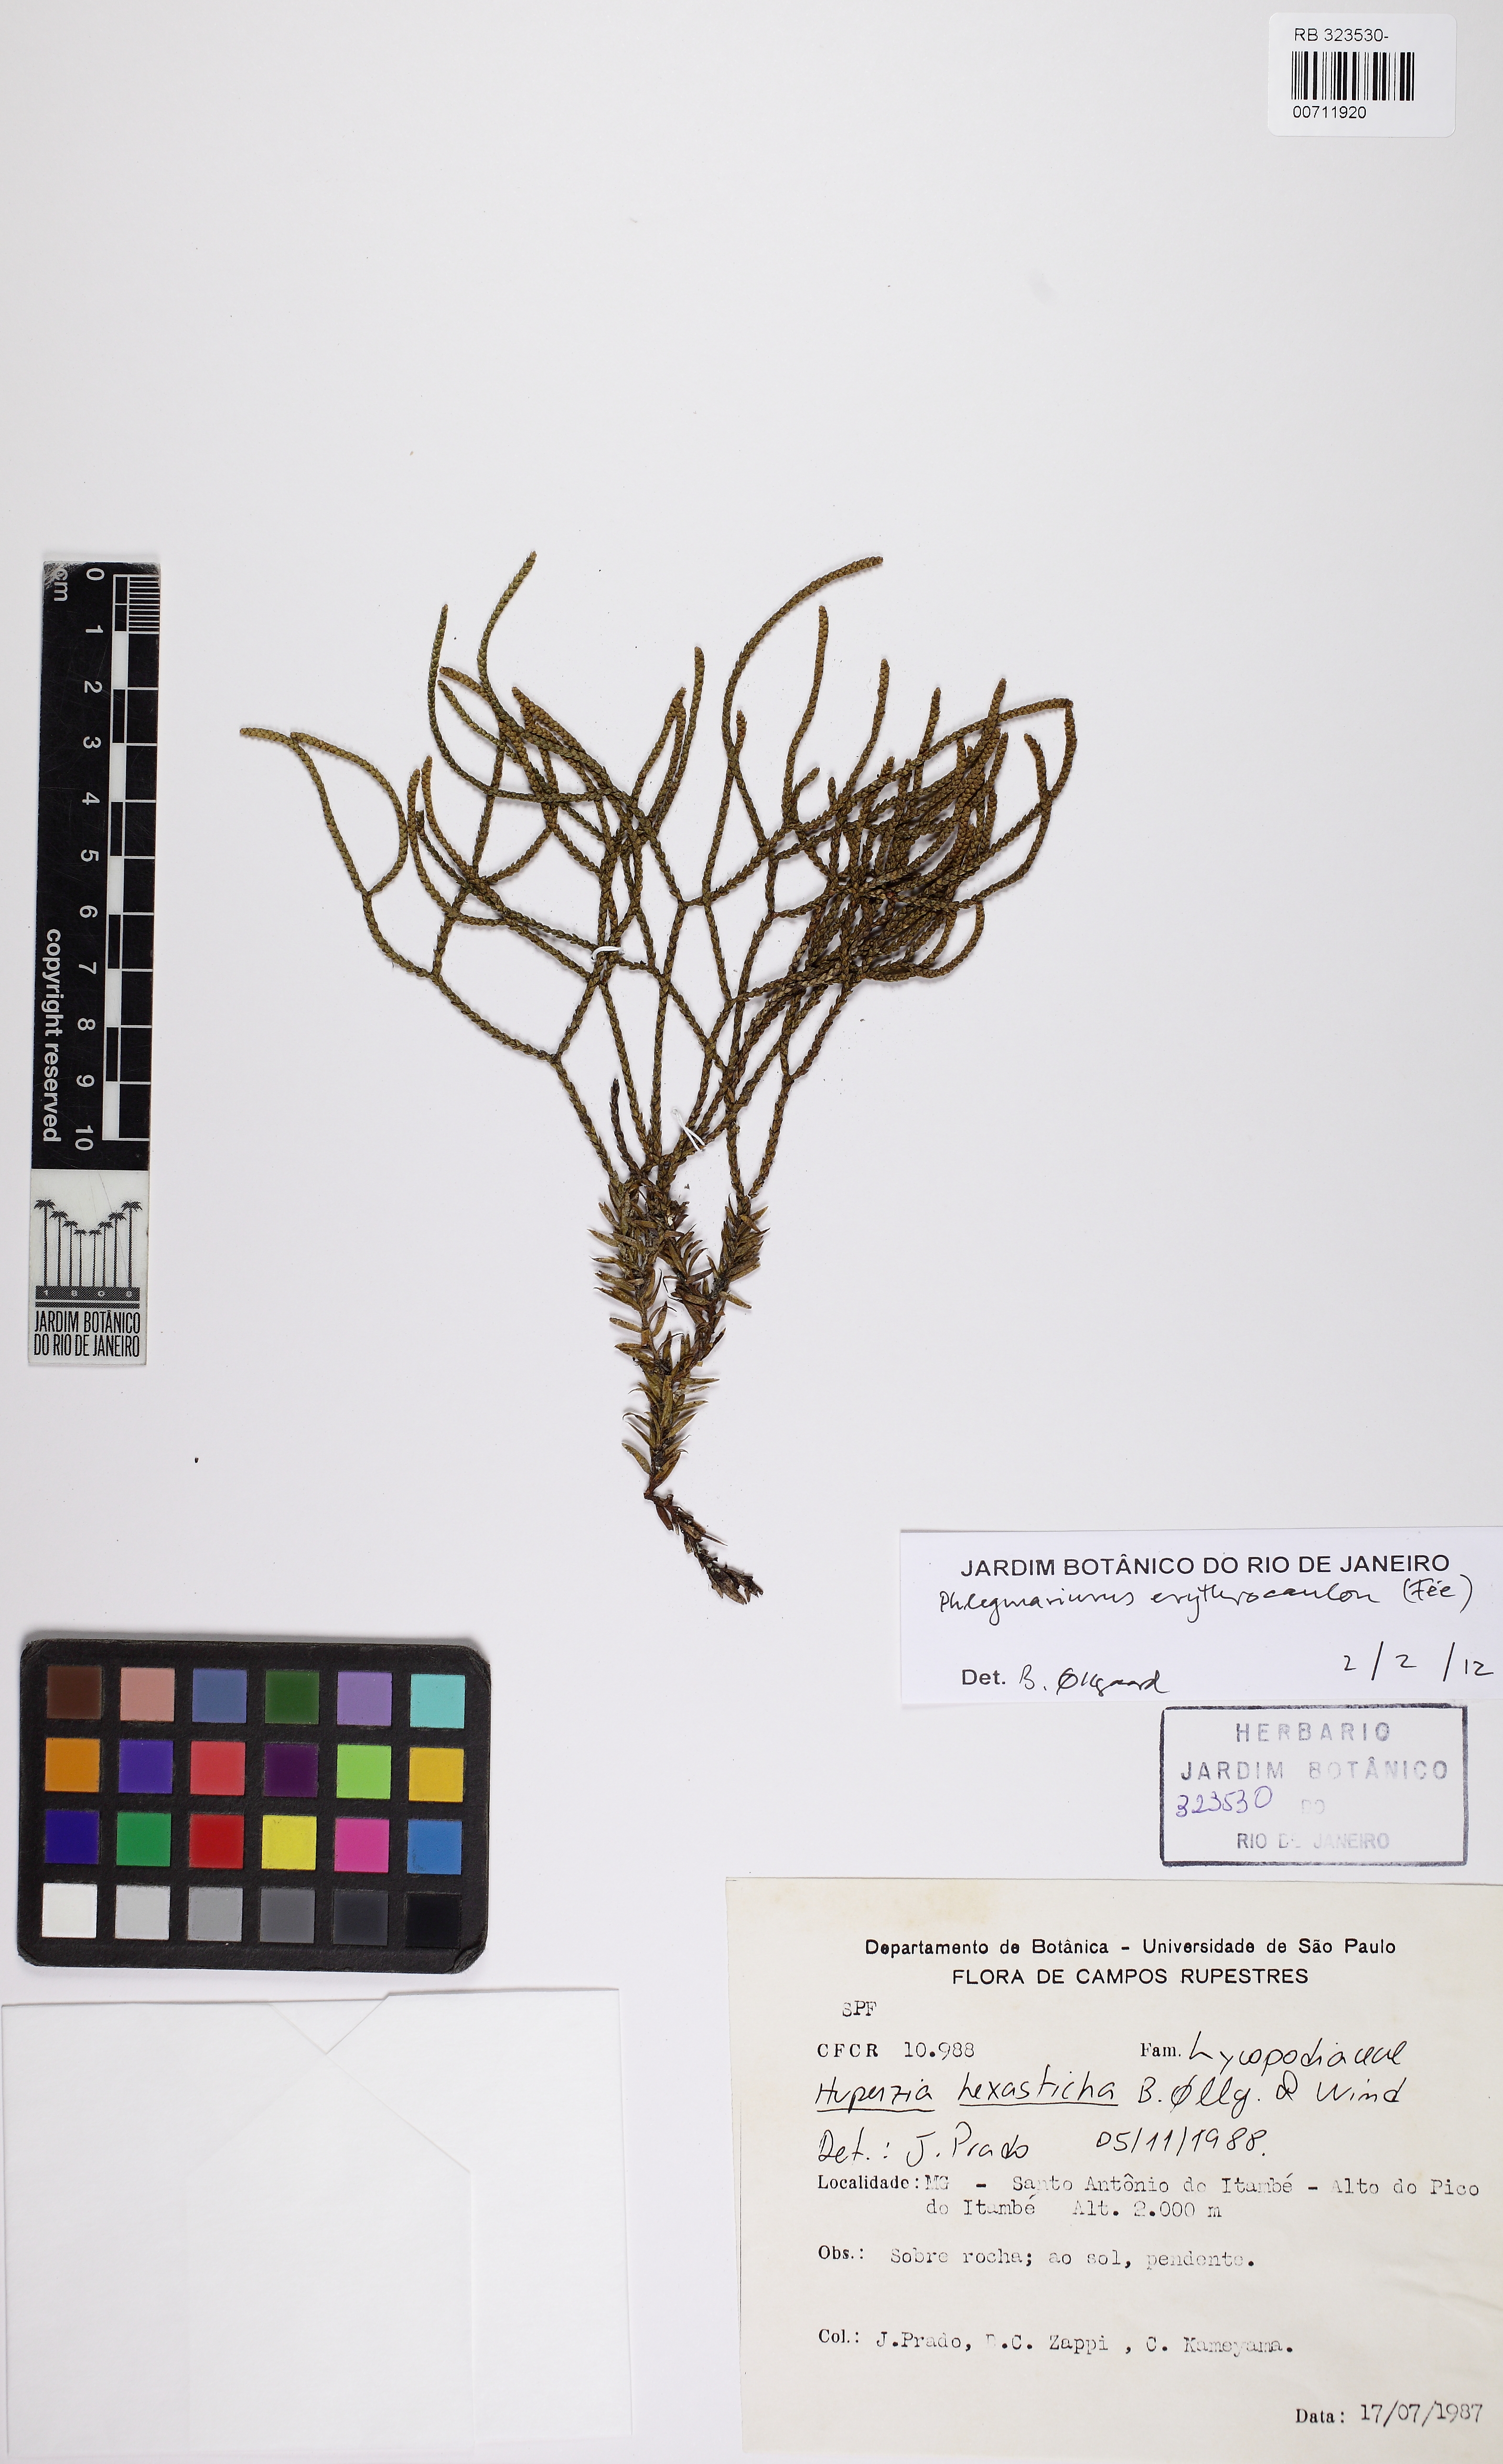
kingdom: Plantae
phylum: Tracheophyta
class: Lycopodiopsida
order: Lycopodiales
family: Lycopodiaceae
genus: Phlegmariurus
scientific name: Phlegmariurus erythrocaulos
